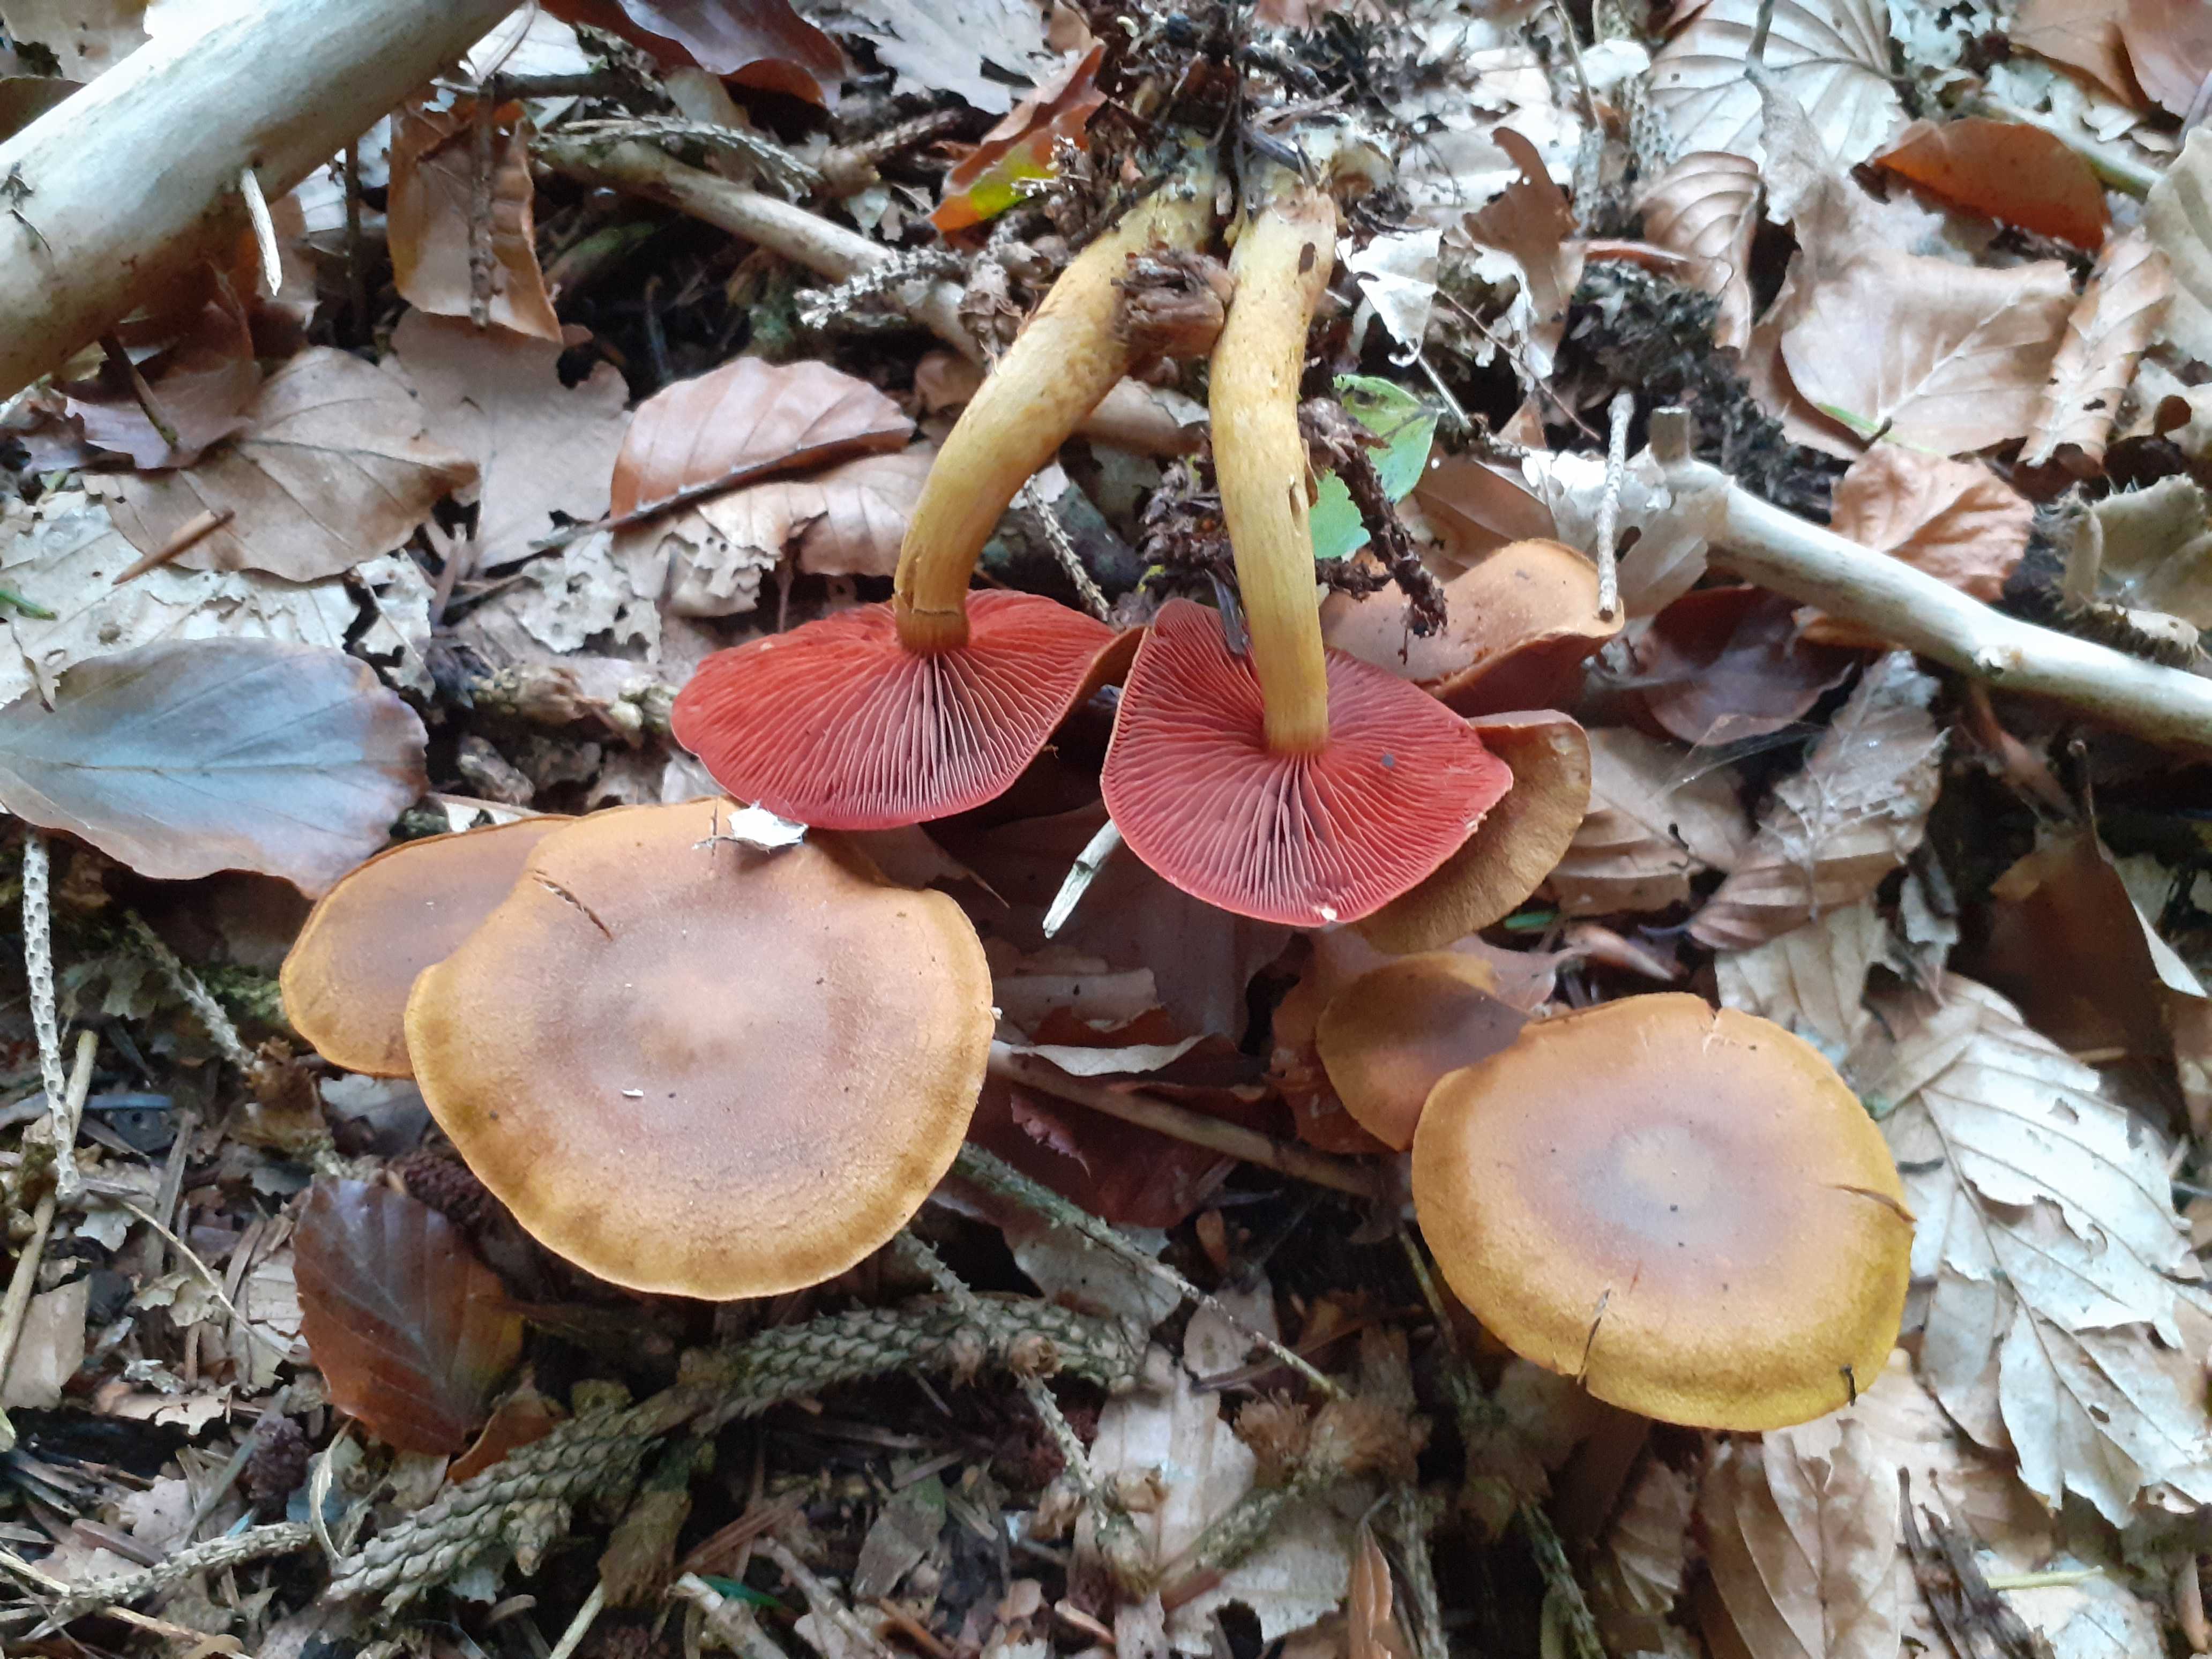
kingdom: Fungi
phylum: Basidiomycota
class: Agaricomycetes
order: Agaricales
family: Cortinariaceae
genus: Cortinarius
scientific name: Cortinarius
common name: cinnoberbladet slørhat
